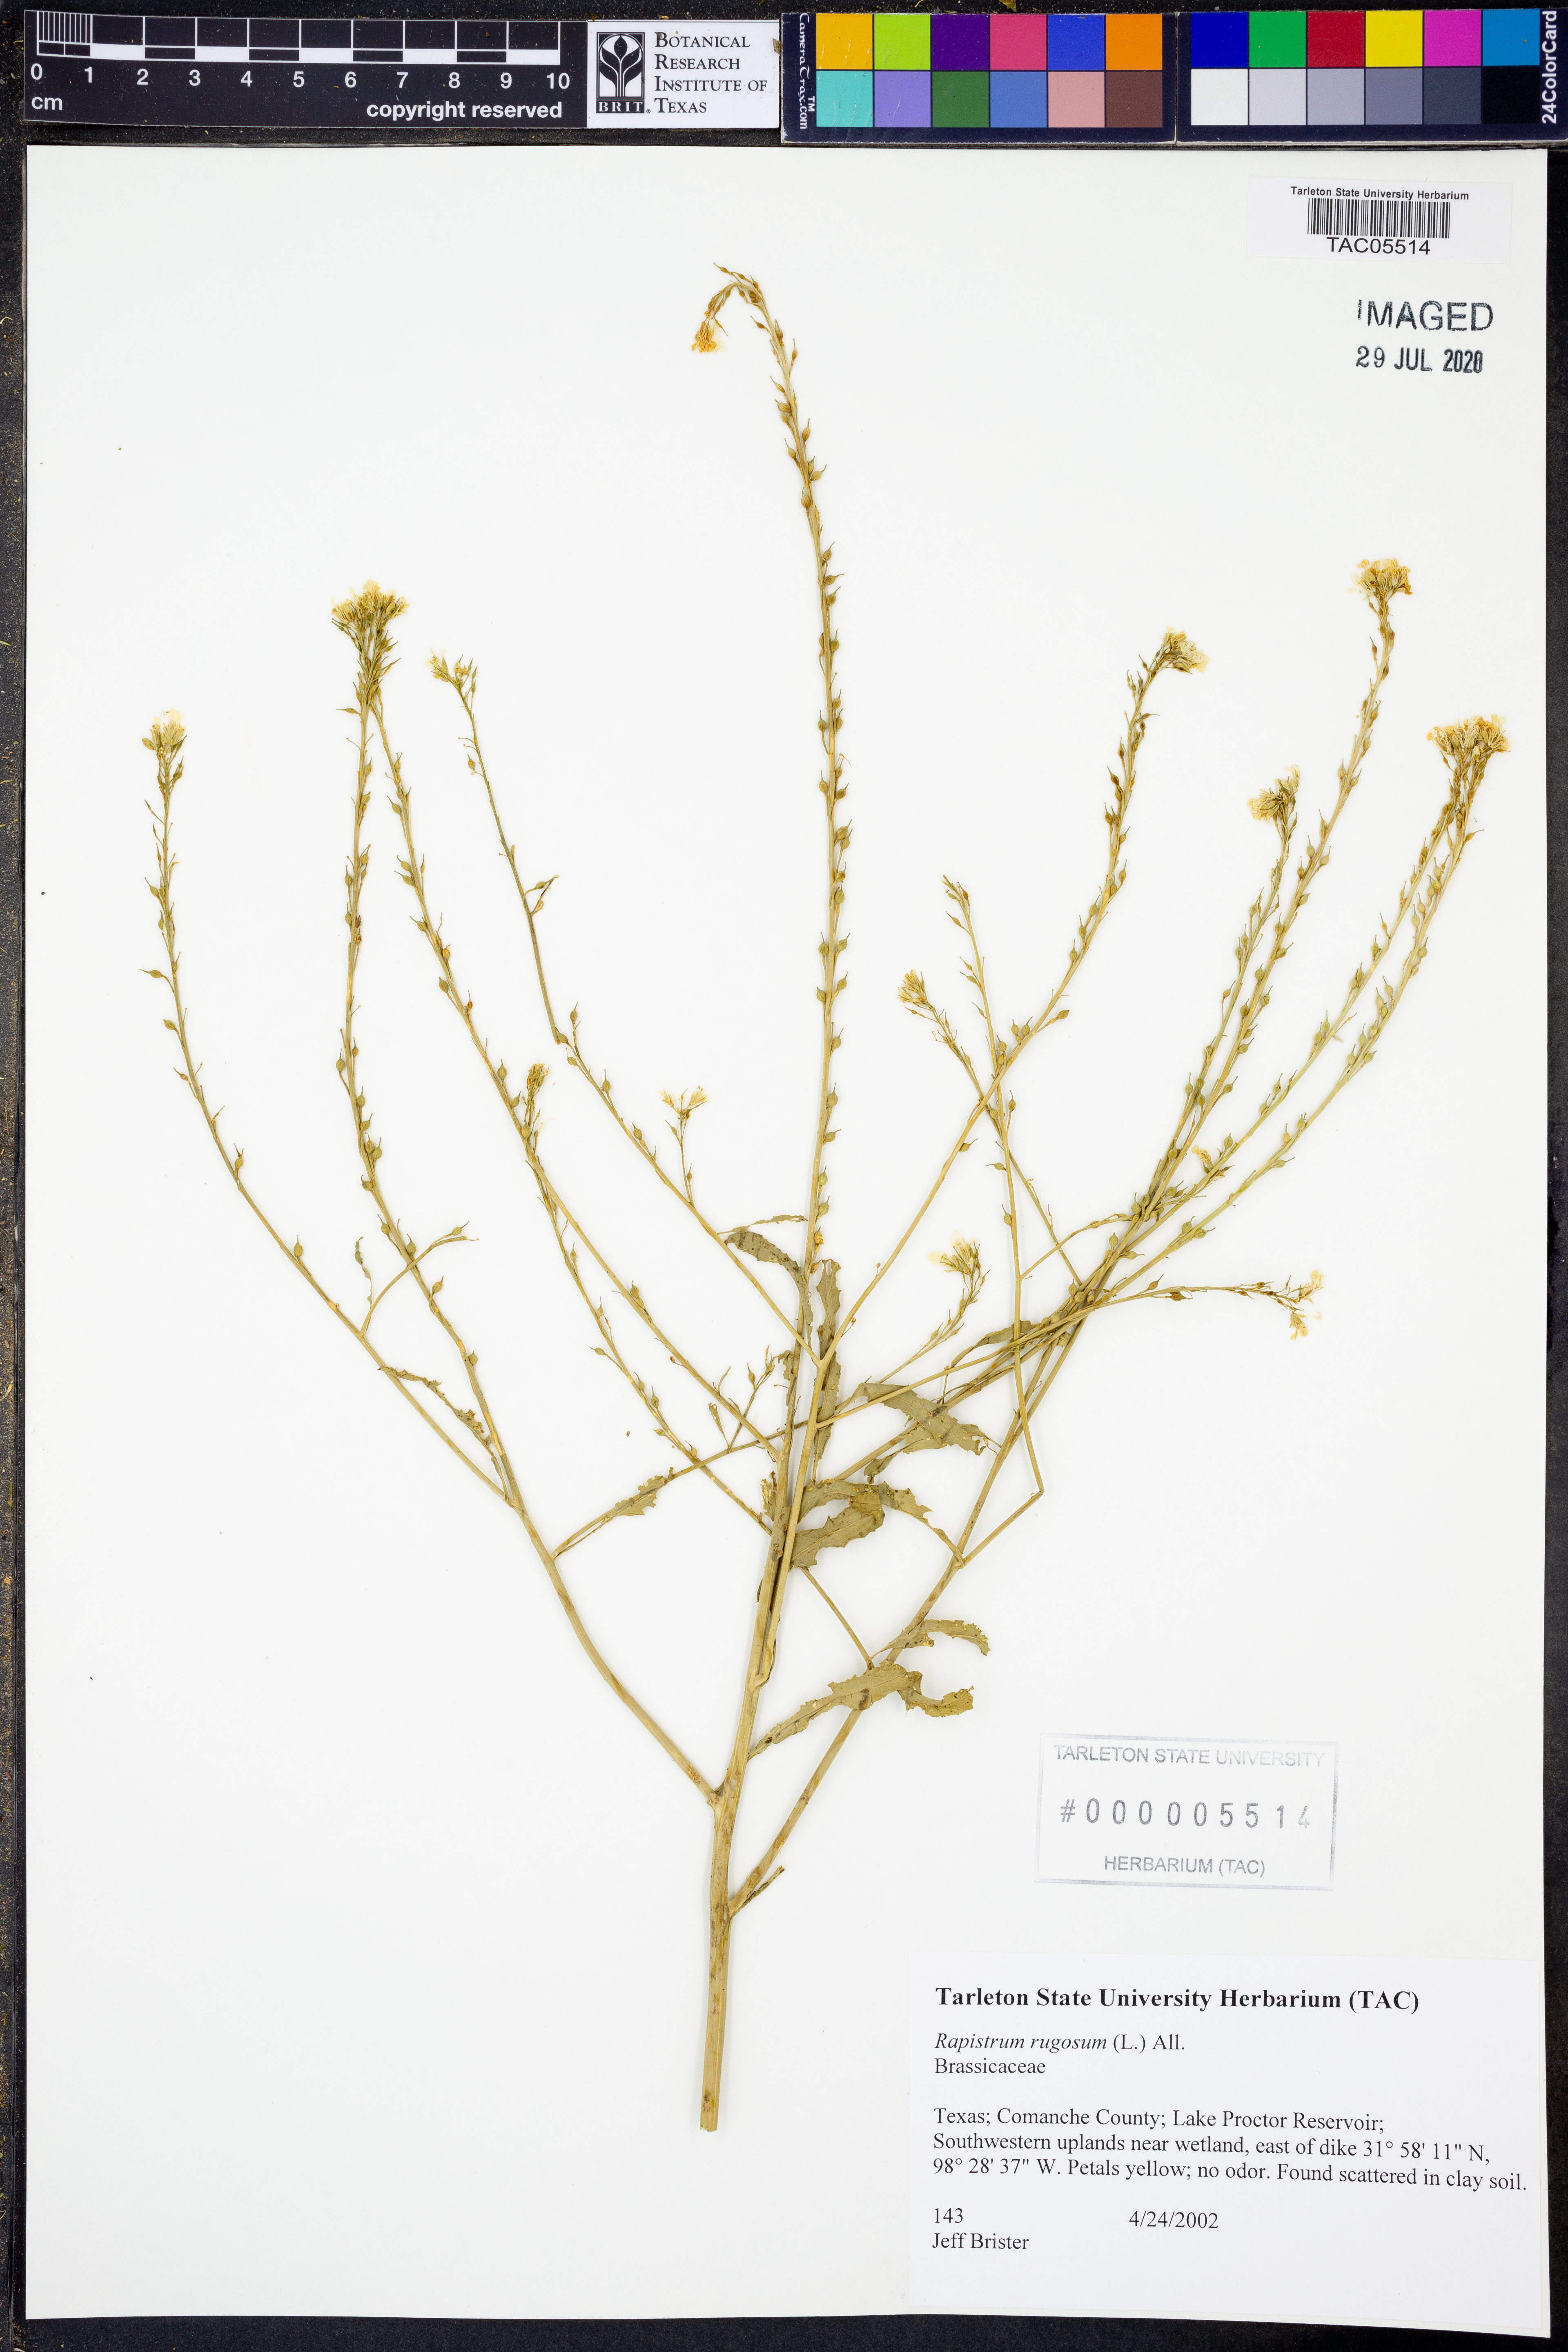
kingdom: Plantae
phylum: Tracheophyta
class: Magnoliopsida
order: Brassicales
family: Brassicaceae
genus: Rapistrum
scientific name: Rapistrum rugosum
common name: Annual bastardcabbage
